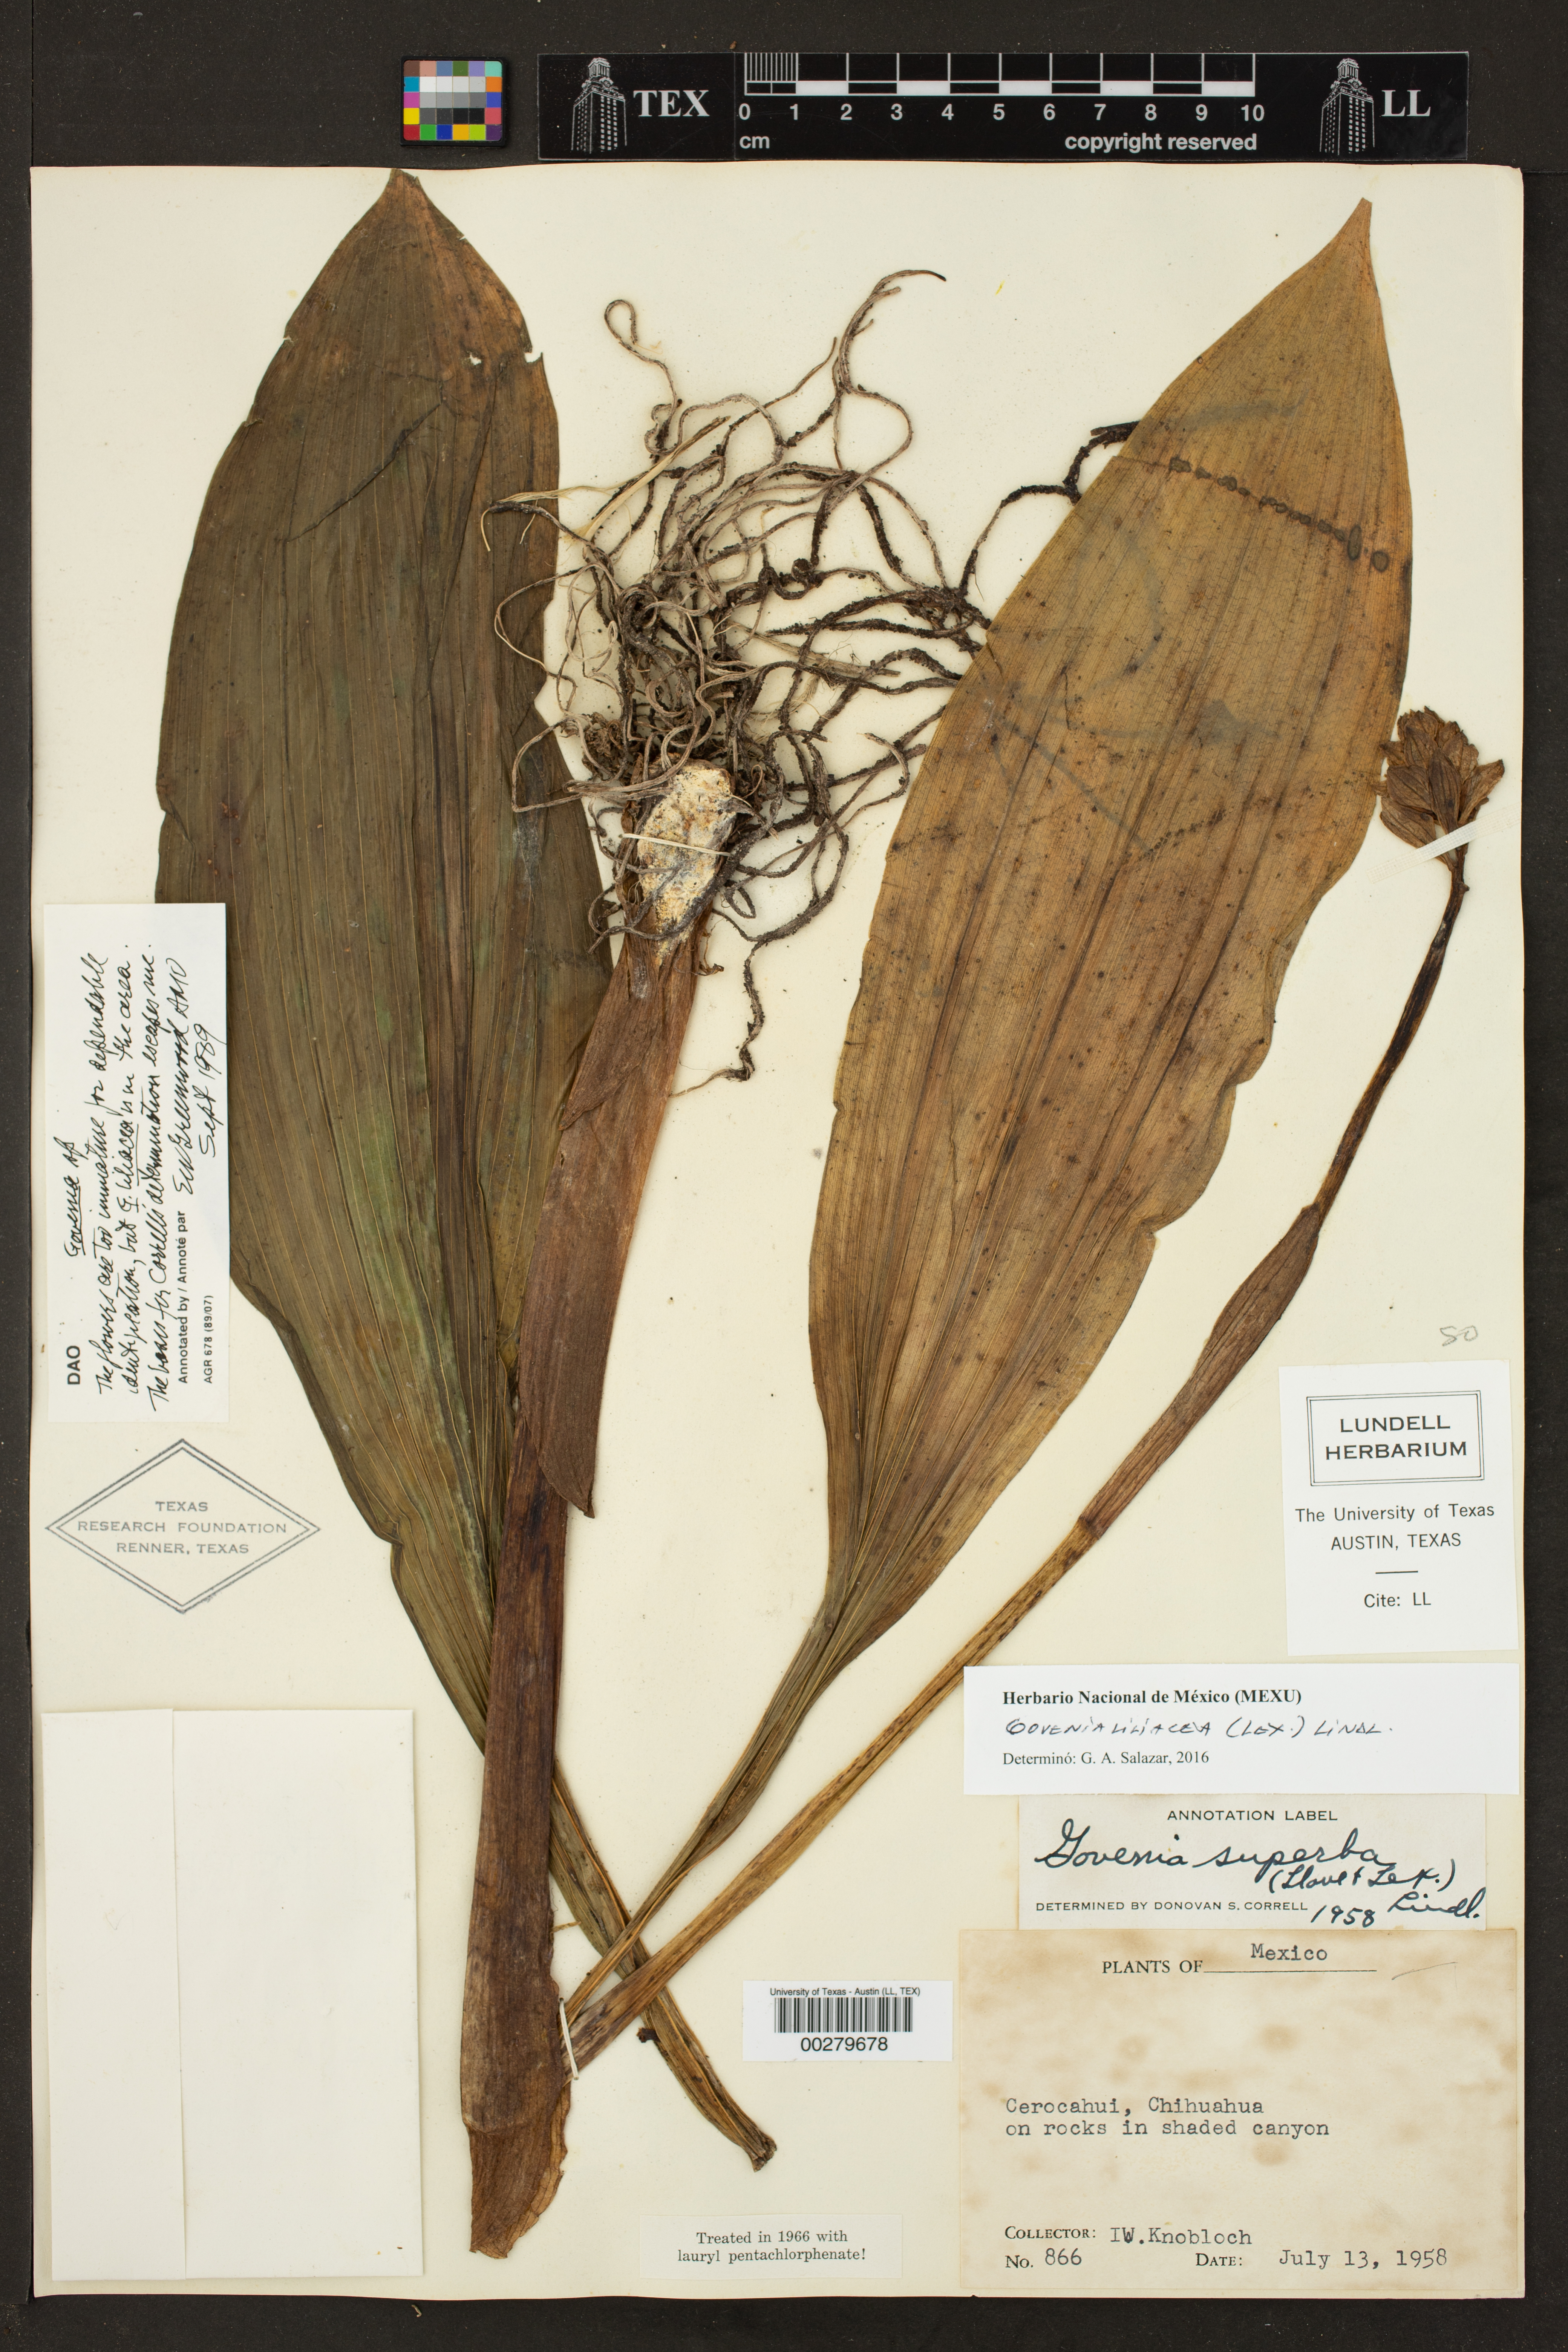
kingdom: Plantae
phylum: Tracheophyta
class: Liliopsida
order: Asparagales
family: Orchidaceae
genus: Govenia
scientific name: Govenia liliacea
